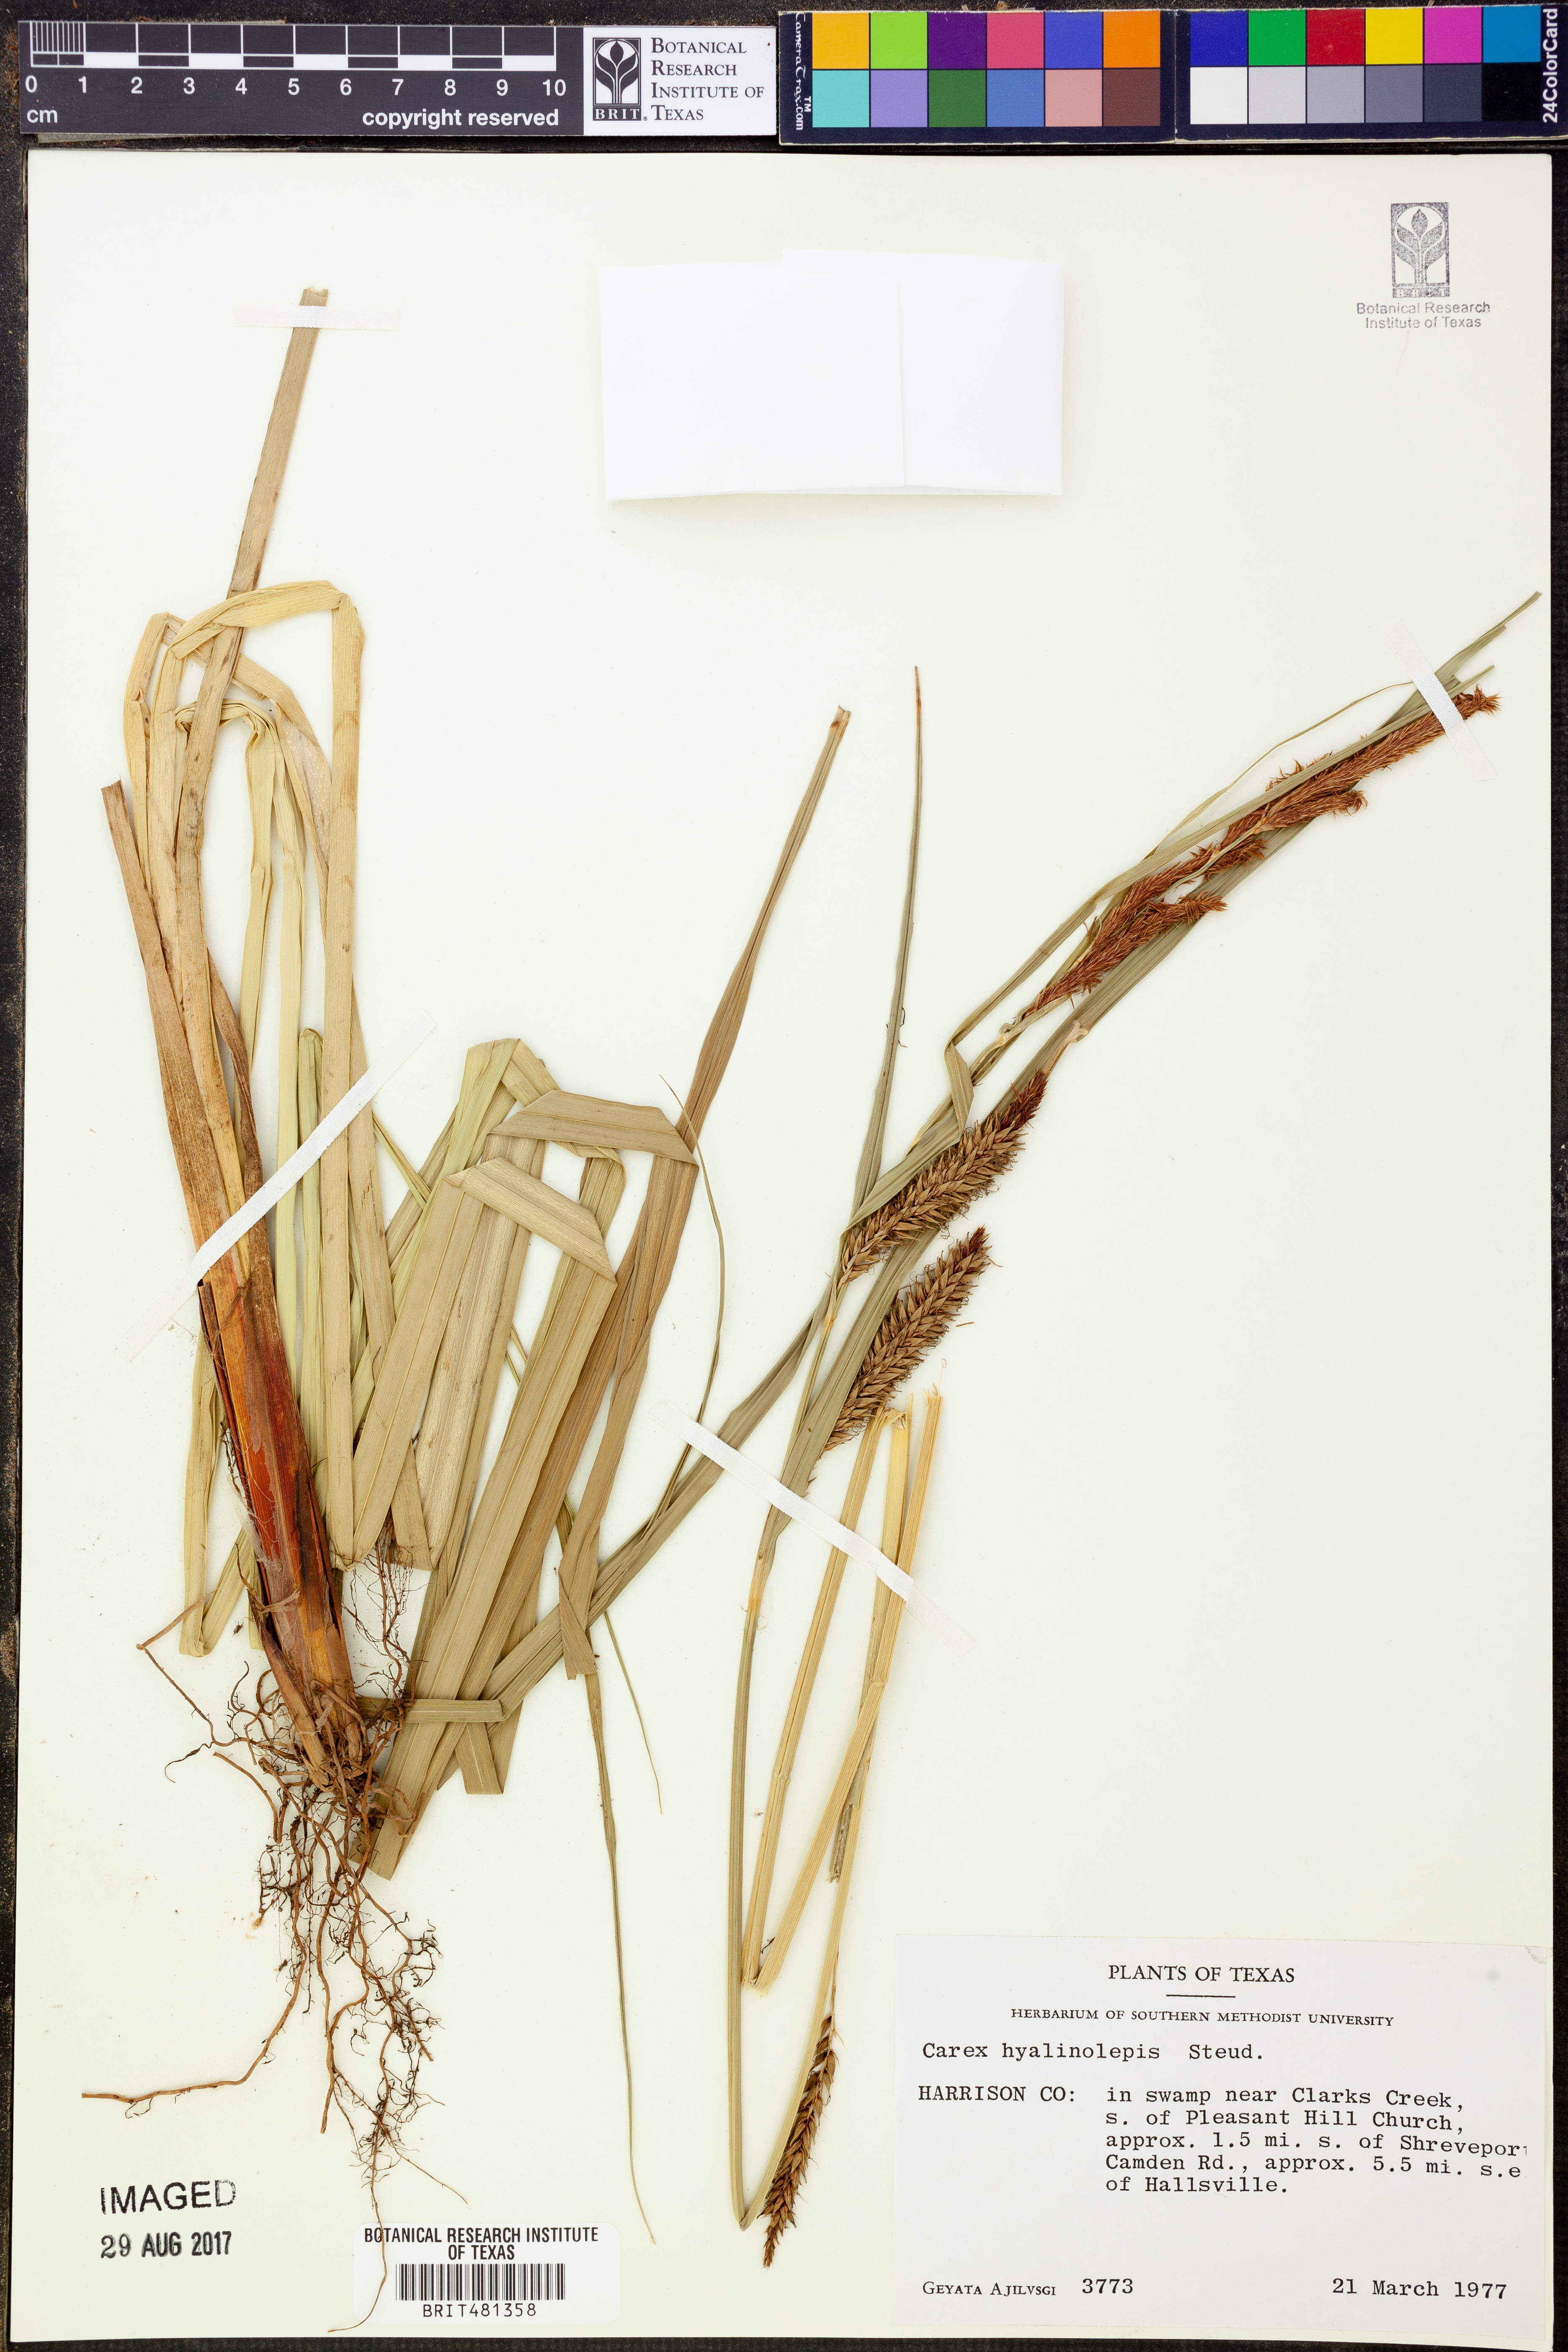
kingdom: Plantae
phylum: Tracheophyta
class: Liliopsida
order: Poales
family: Cyperaceae
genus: Carex
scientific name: Carex hyalinolepis
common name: Shoreline sedge
